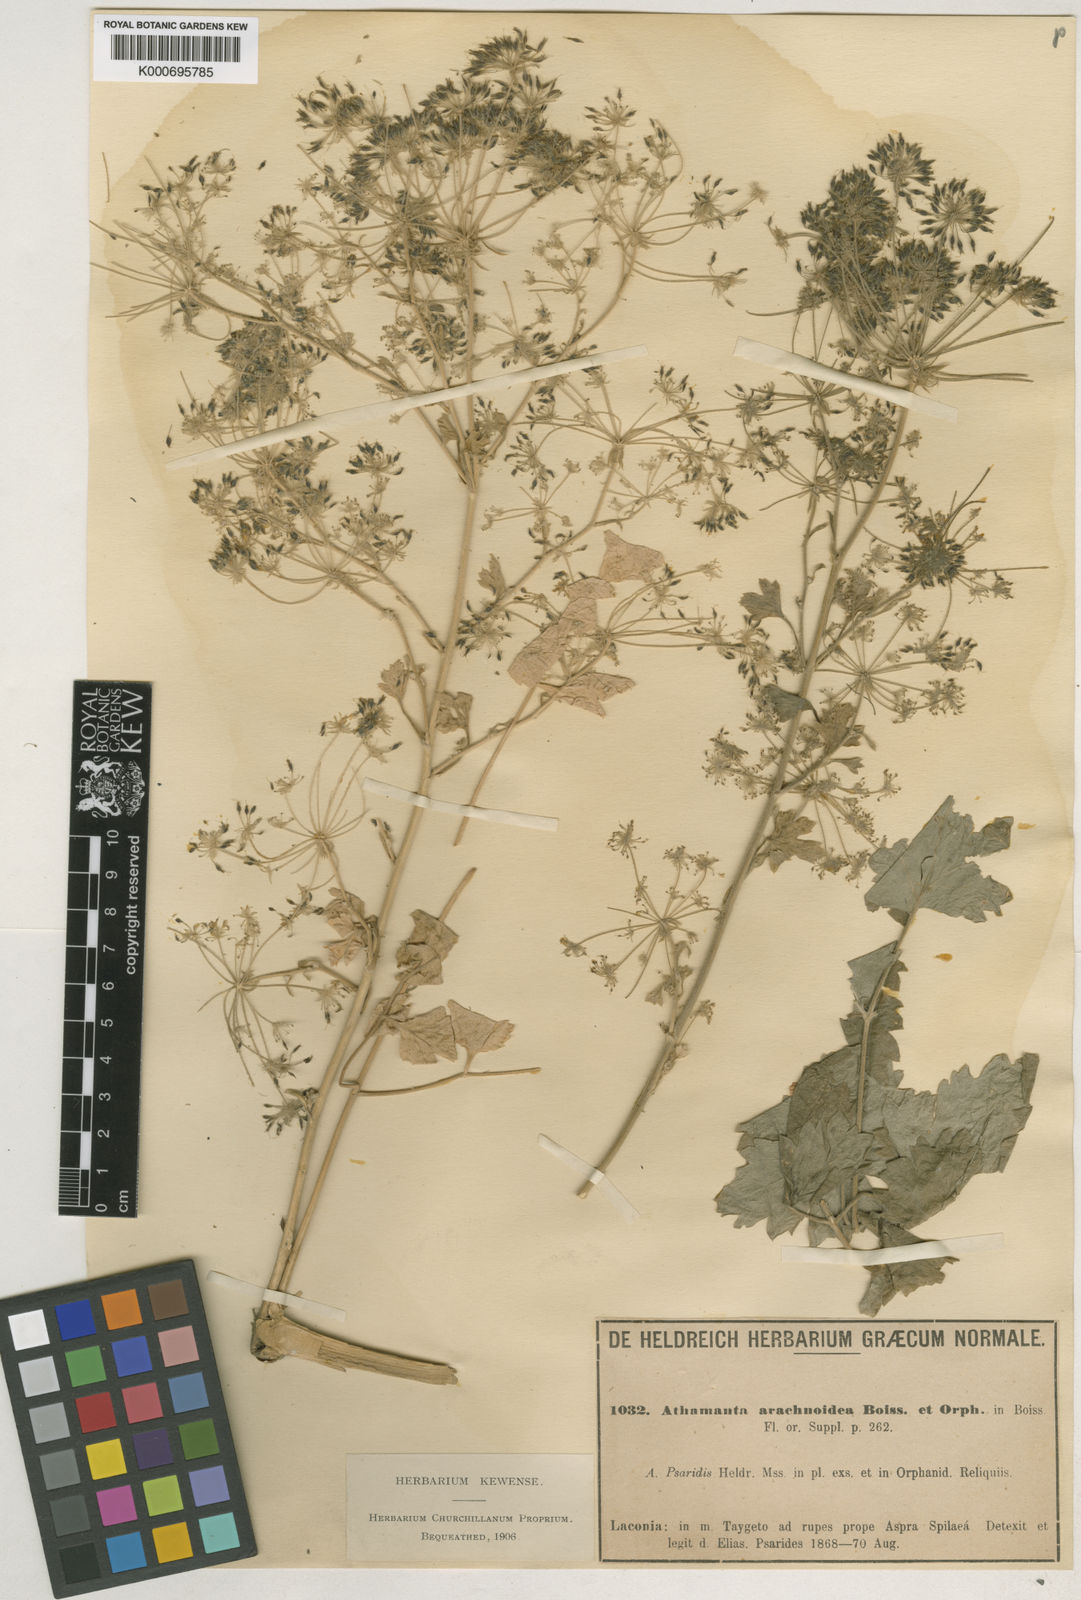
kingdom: Plantae
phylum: Tracheophyta
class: Magnoliopsida
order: Apiales
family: Apiaceae
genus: Bubon
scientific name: Bubon macedonicum
